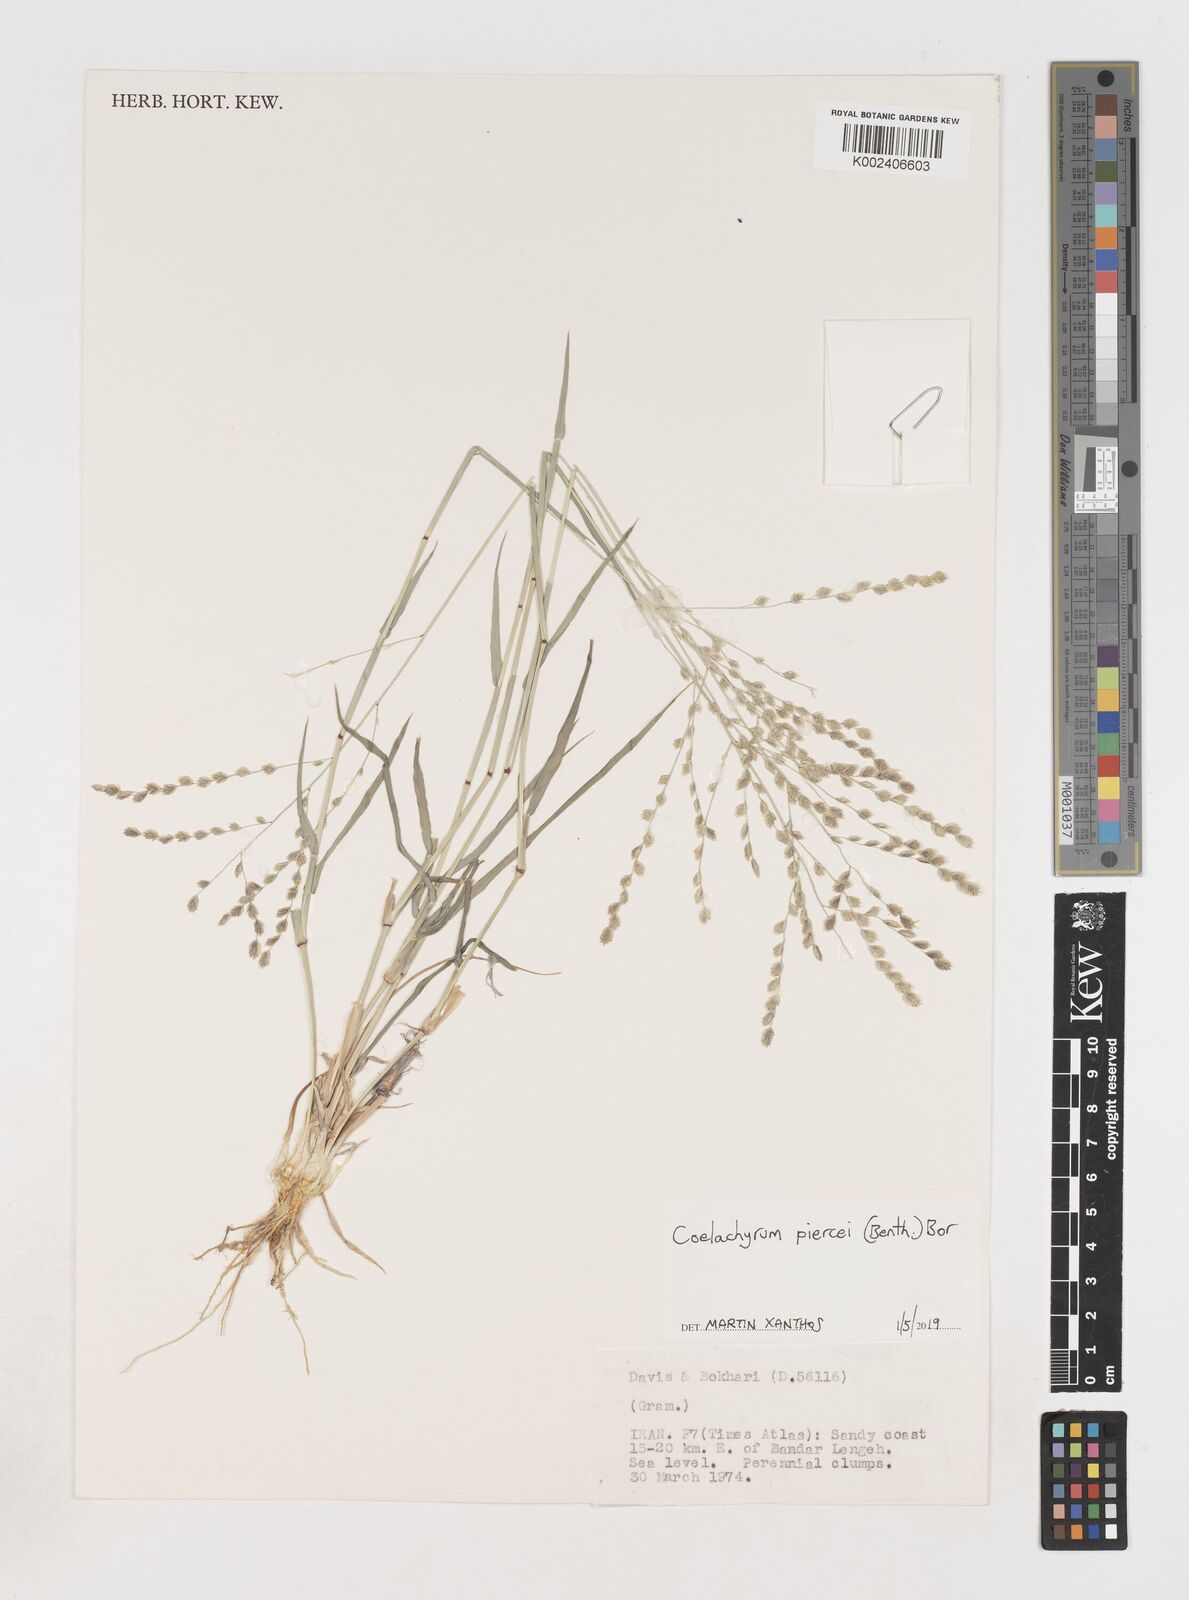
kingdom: Plantae
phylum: Tracheophyta
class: Liliopsida
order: Poales
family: Poaceae
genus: Coelachyrum
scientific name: Coelachyrum piercei
